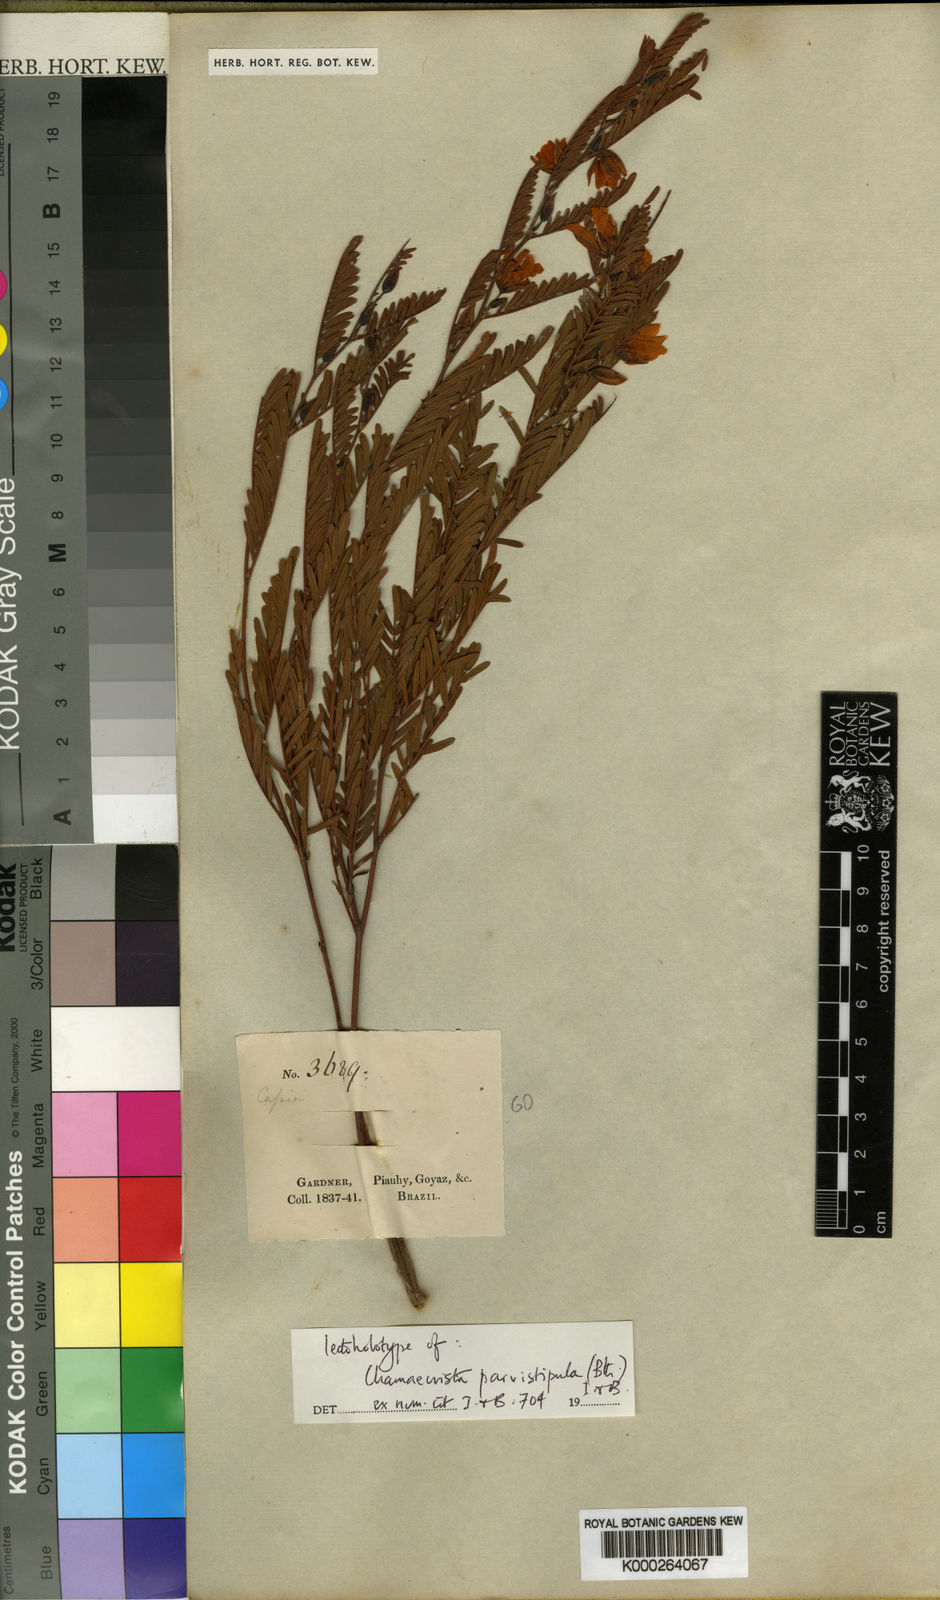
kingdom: Plantae
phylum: Tracheophyta
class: Magnoliopsida
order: Fabales
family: Fabaceae
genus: Chamaecrista
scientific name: Chamaecrista parvistipula
